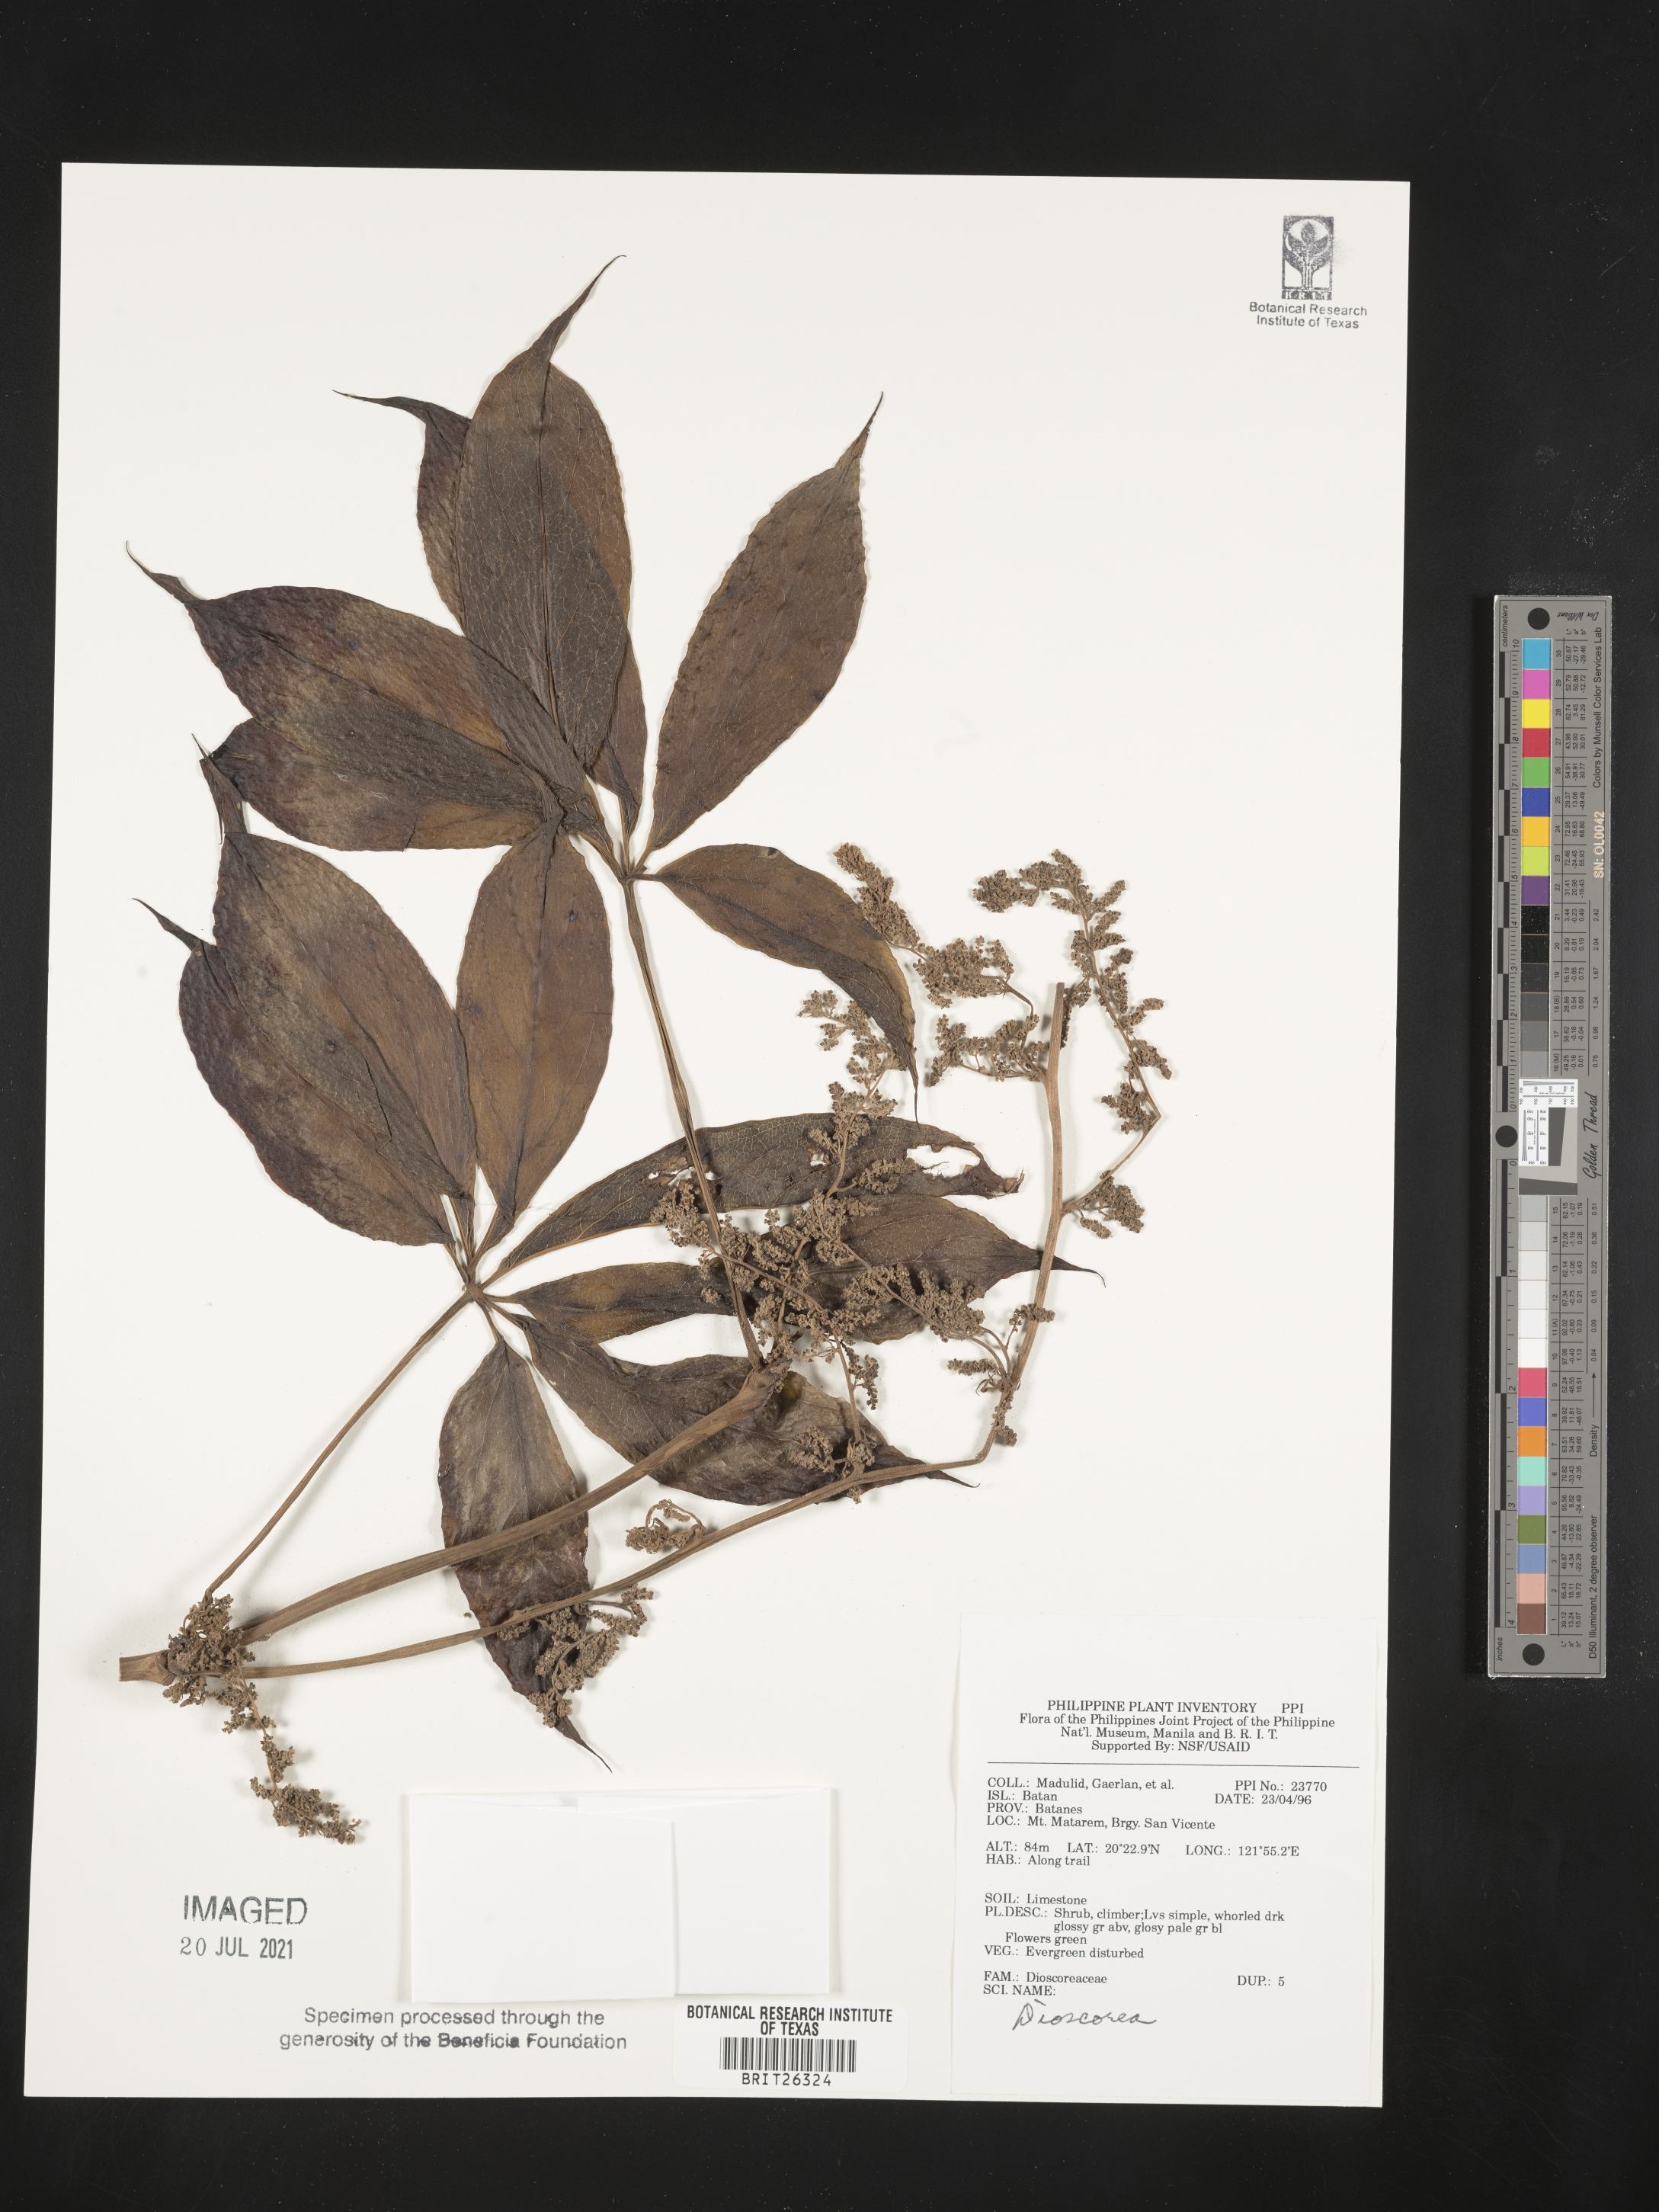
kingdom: Plantae
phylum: Tracheophyta
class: Liliopsida
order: Dioscoreales
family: Dioscoreaceae
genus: Dioscorea
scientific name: Dioscorea
